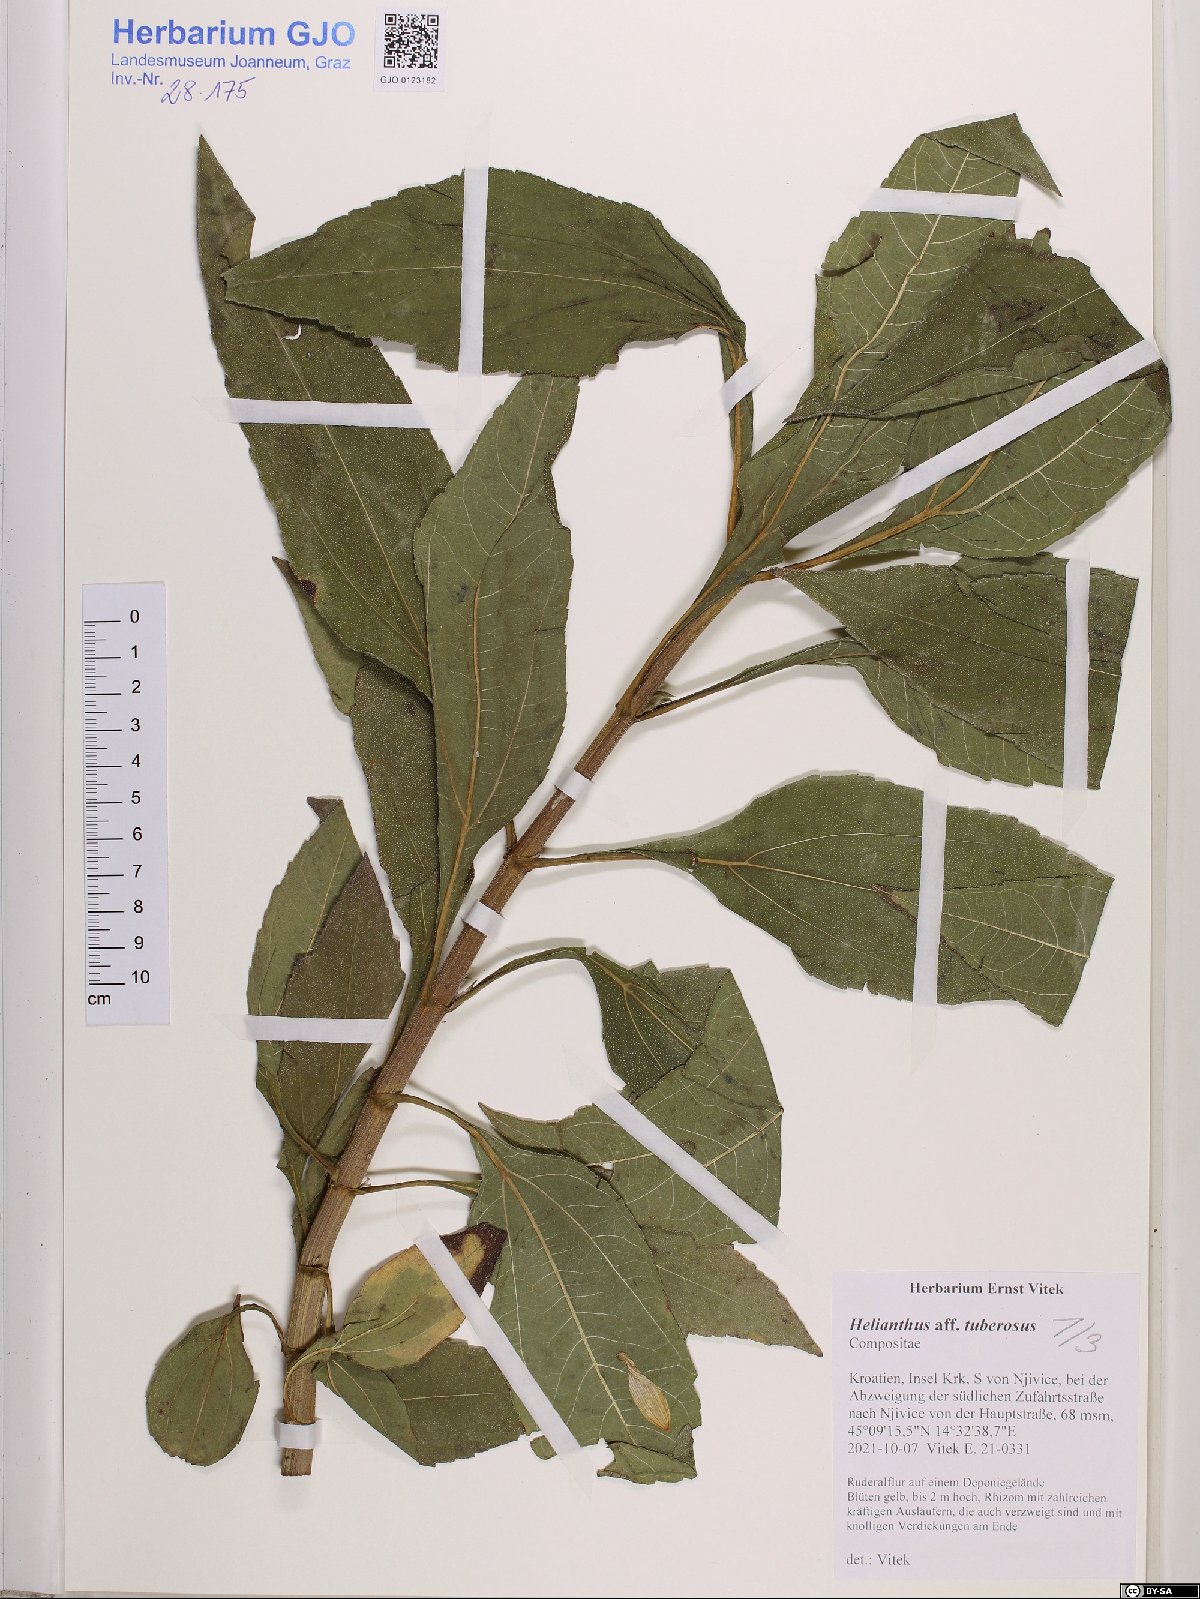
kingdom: Plantae
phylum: Tracheophyta
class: Magnoliopsida
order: Asterales
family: Asteraceae
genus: Helianthus
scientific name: Helianthus tuberosus
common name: Jerusalem artichoke
